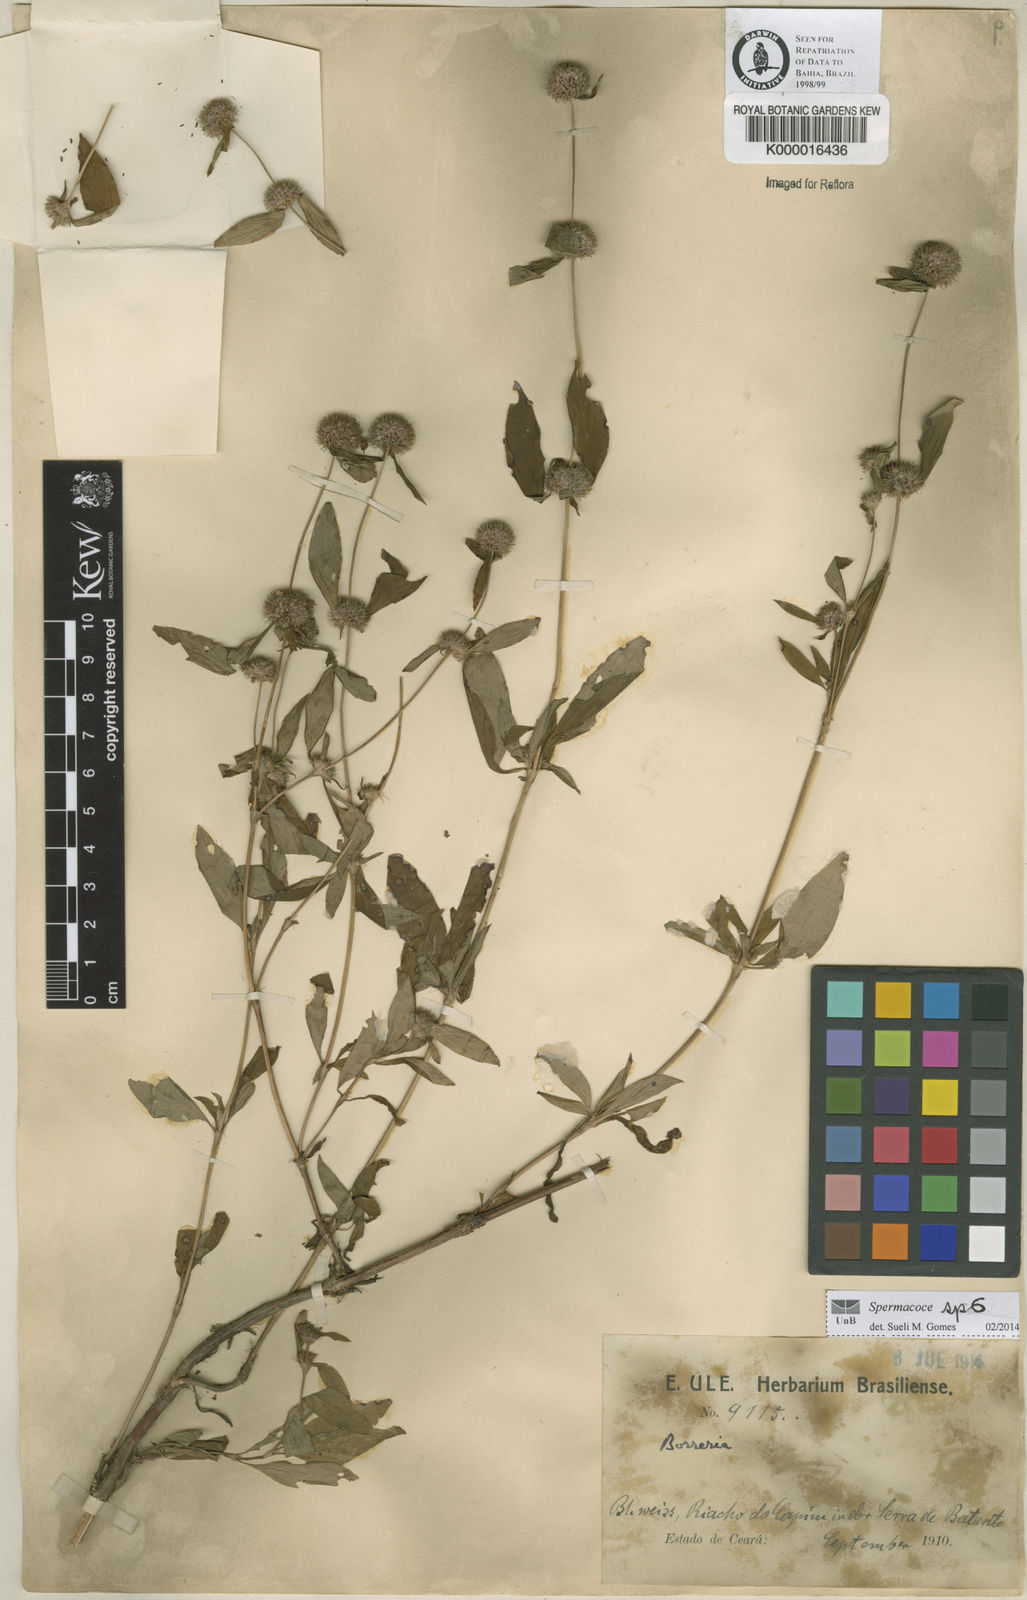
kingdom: Plantae
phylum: Tracheophyta
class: Magnoliopsida
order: Gentianales
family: Rubiaceae
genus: Spermacoce
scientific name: Spermacoce
